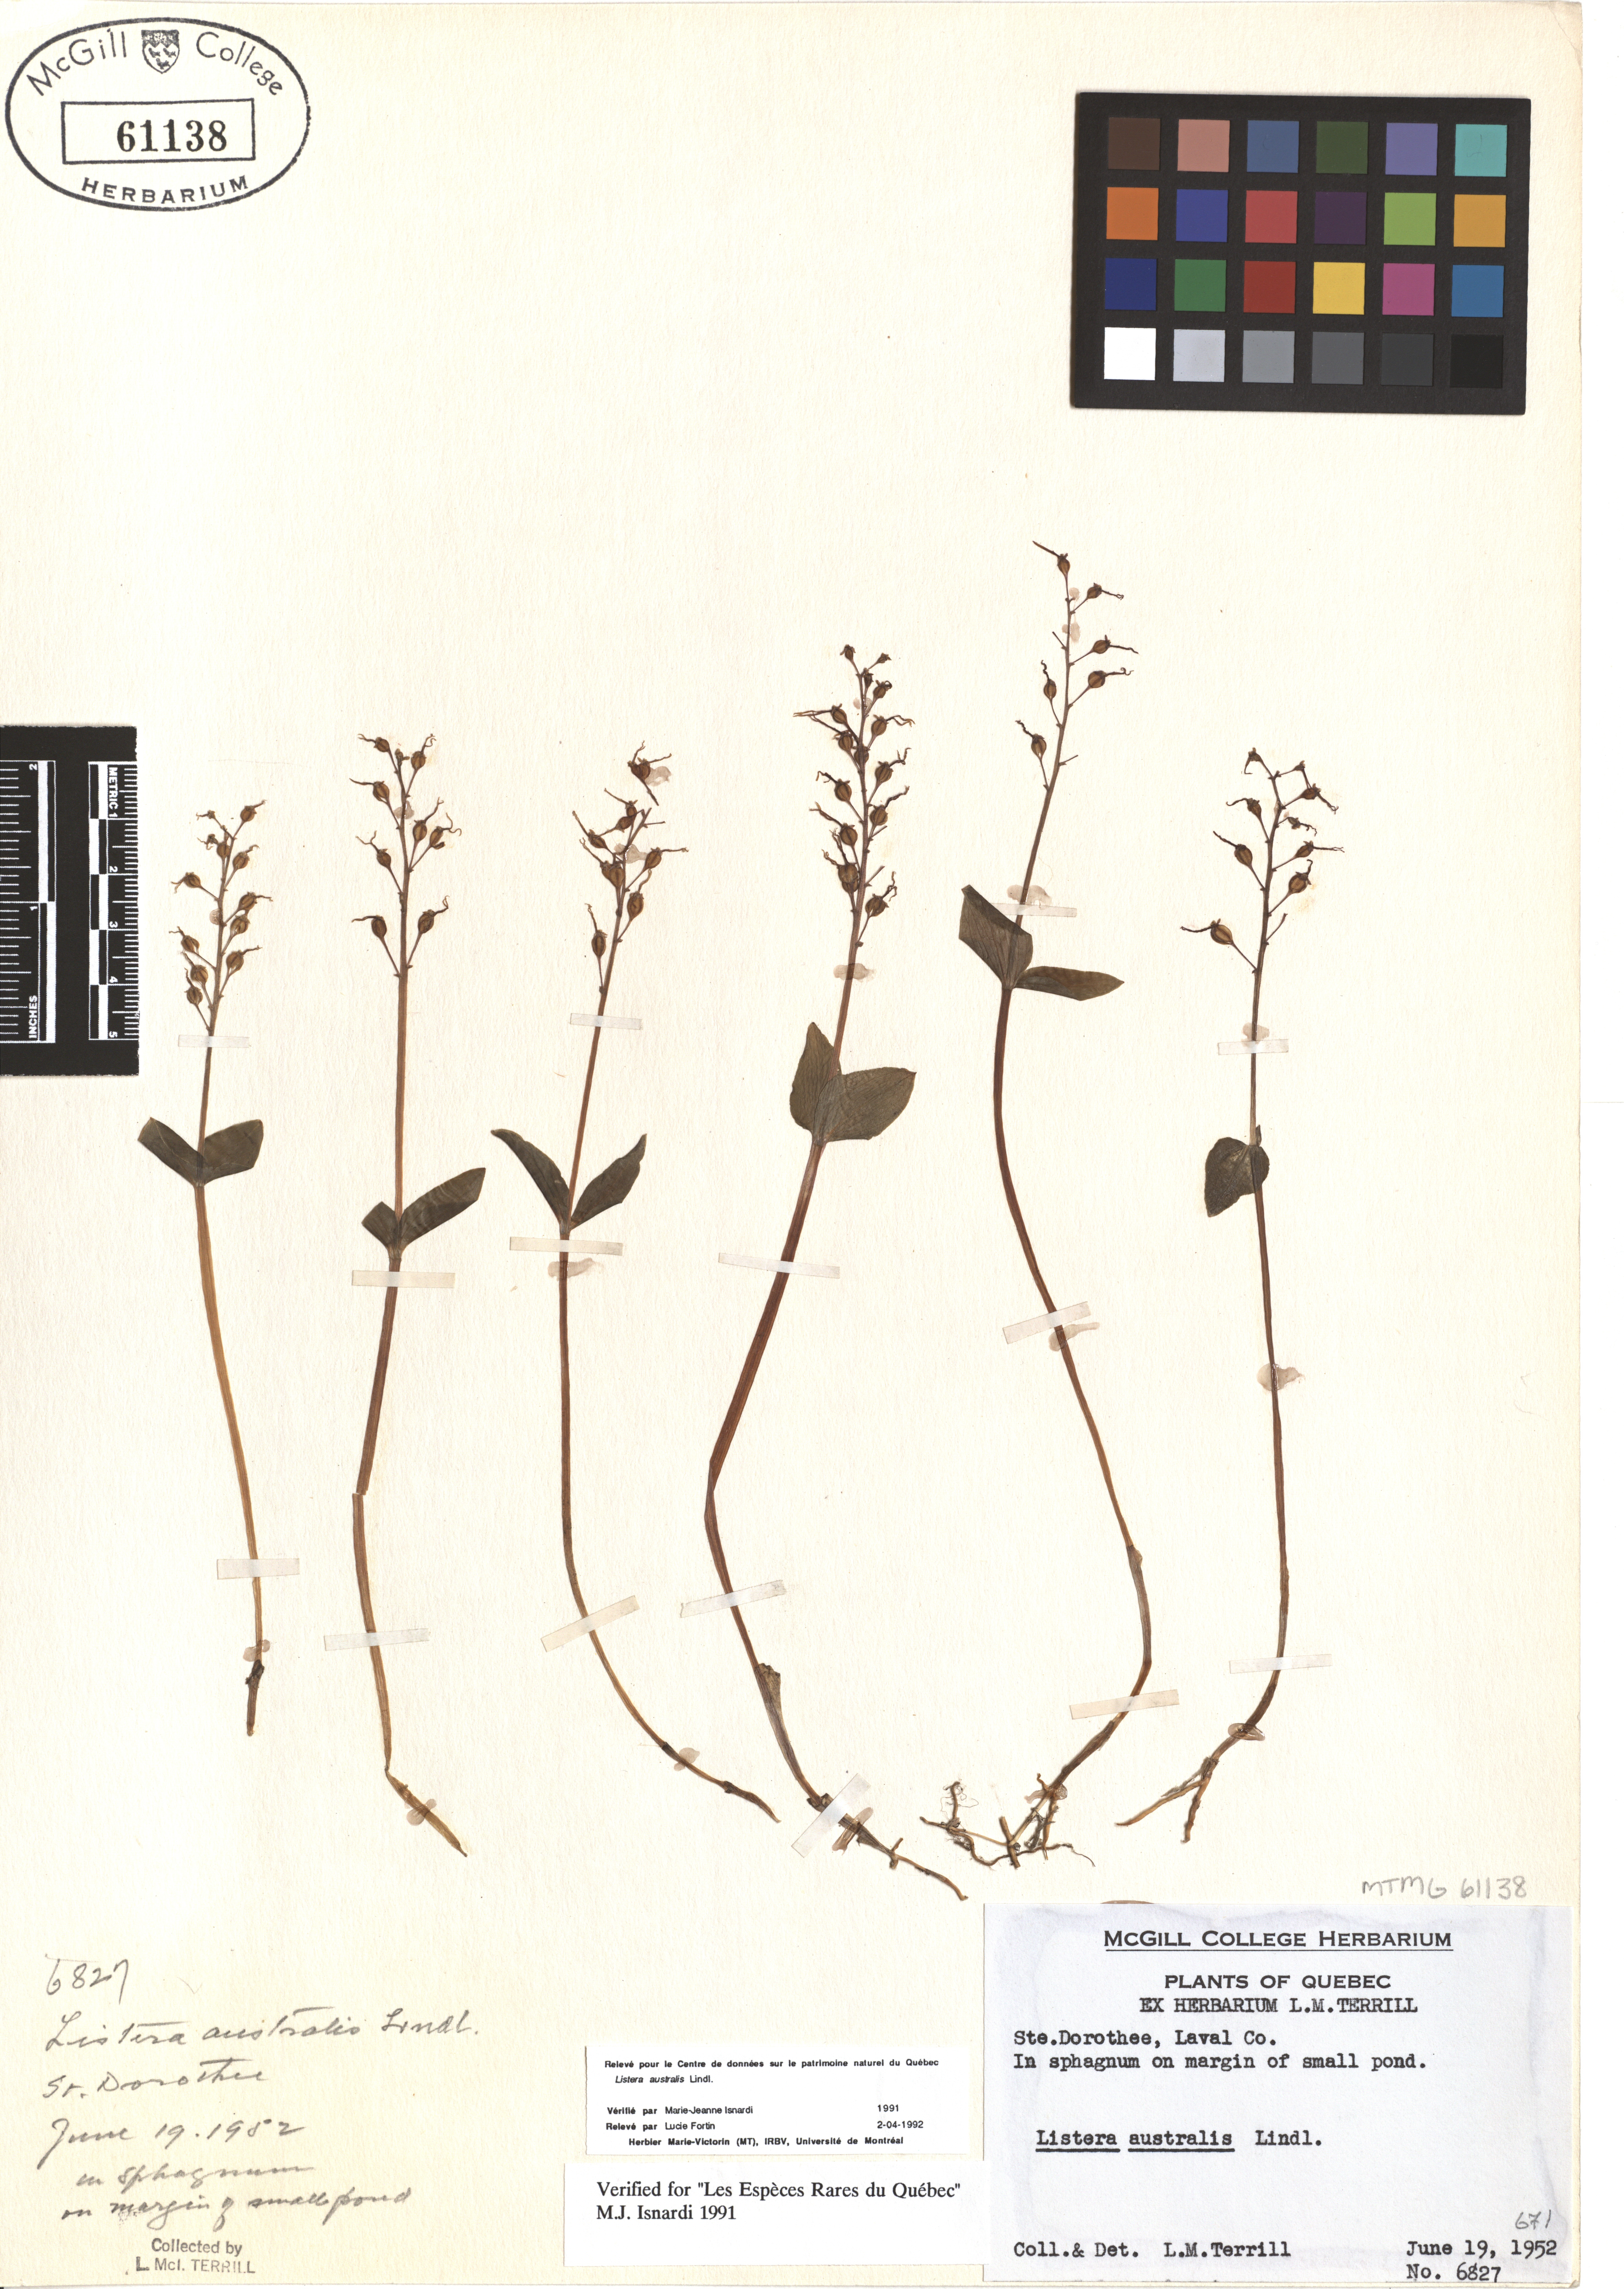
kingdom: Plantae
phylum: Tracheophyta
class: Liliopsida
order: Asparagales
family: Orchidaceae
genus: Neottia
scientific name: Neottia convallarioides
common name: Broadleaf twayblade
